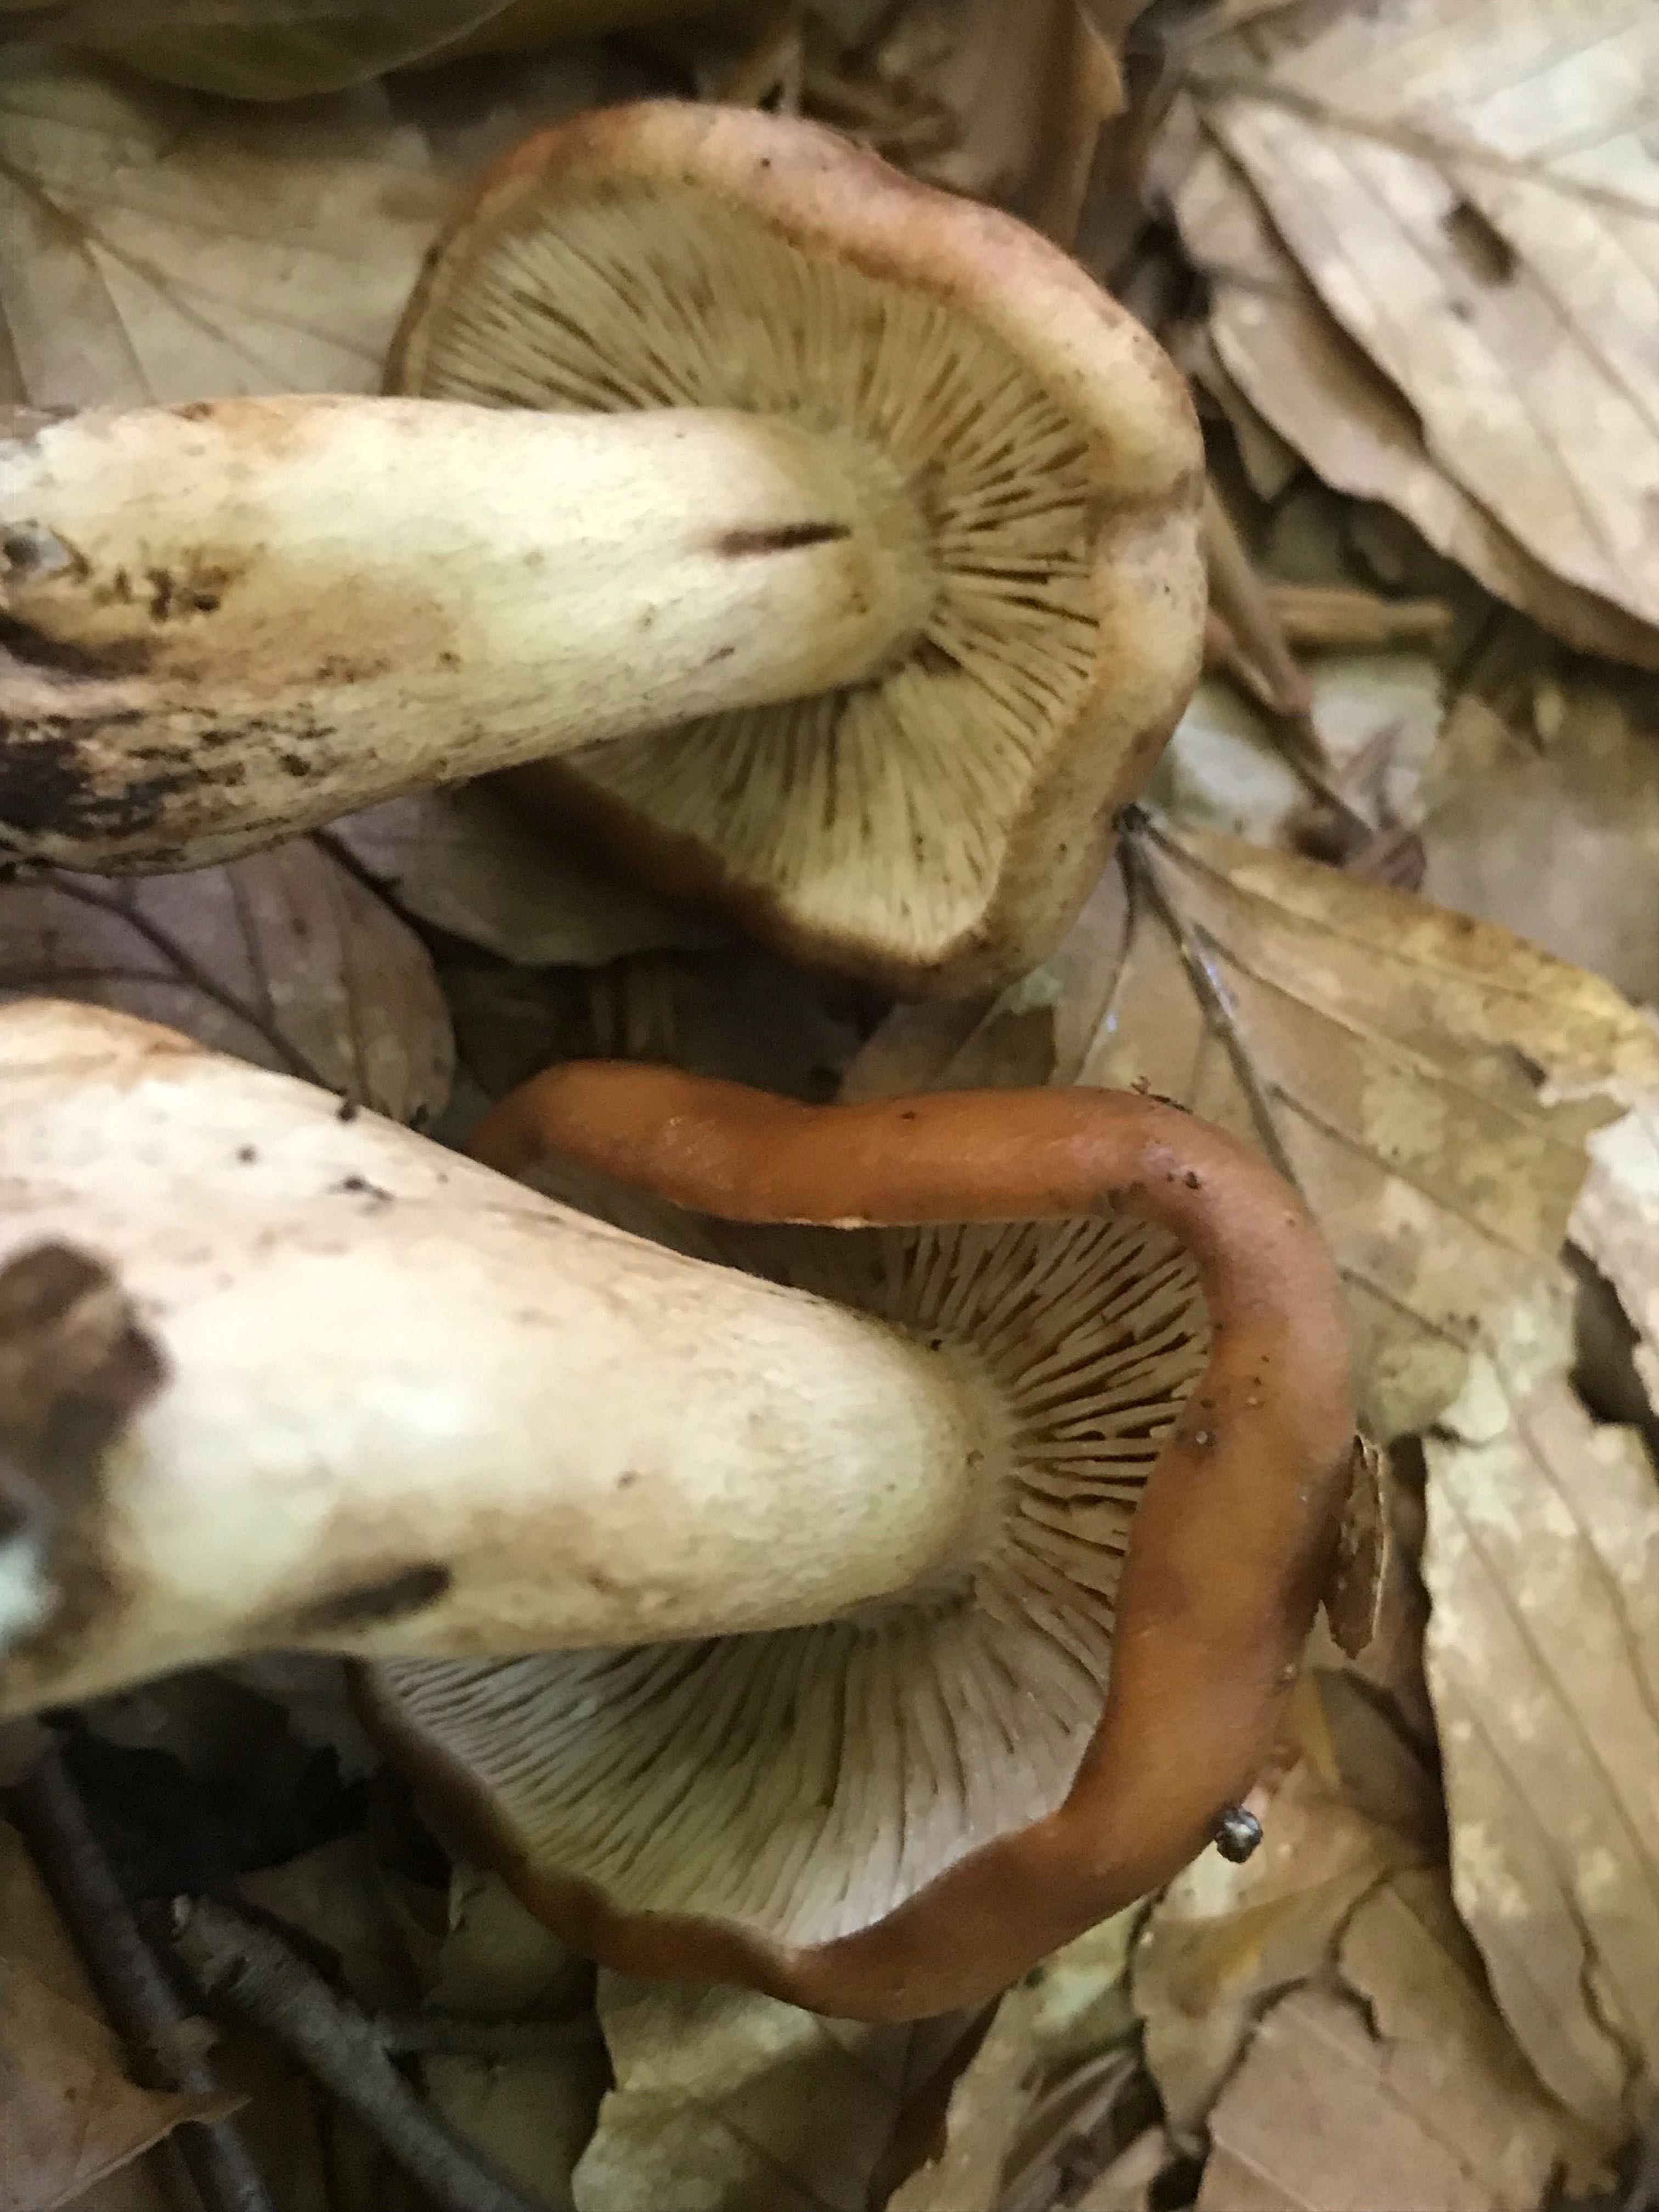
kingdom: Fungi
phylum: Basidiomycota
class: Agaricomycetes
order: Agaricales
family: Tricholomataceae
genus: Tricholoma
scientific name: Tricholoma ustale
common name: sveden ridderhat
